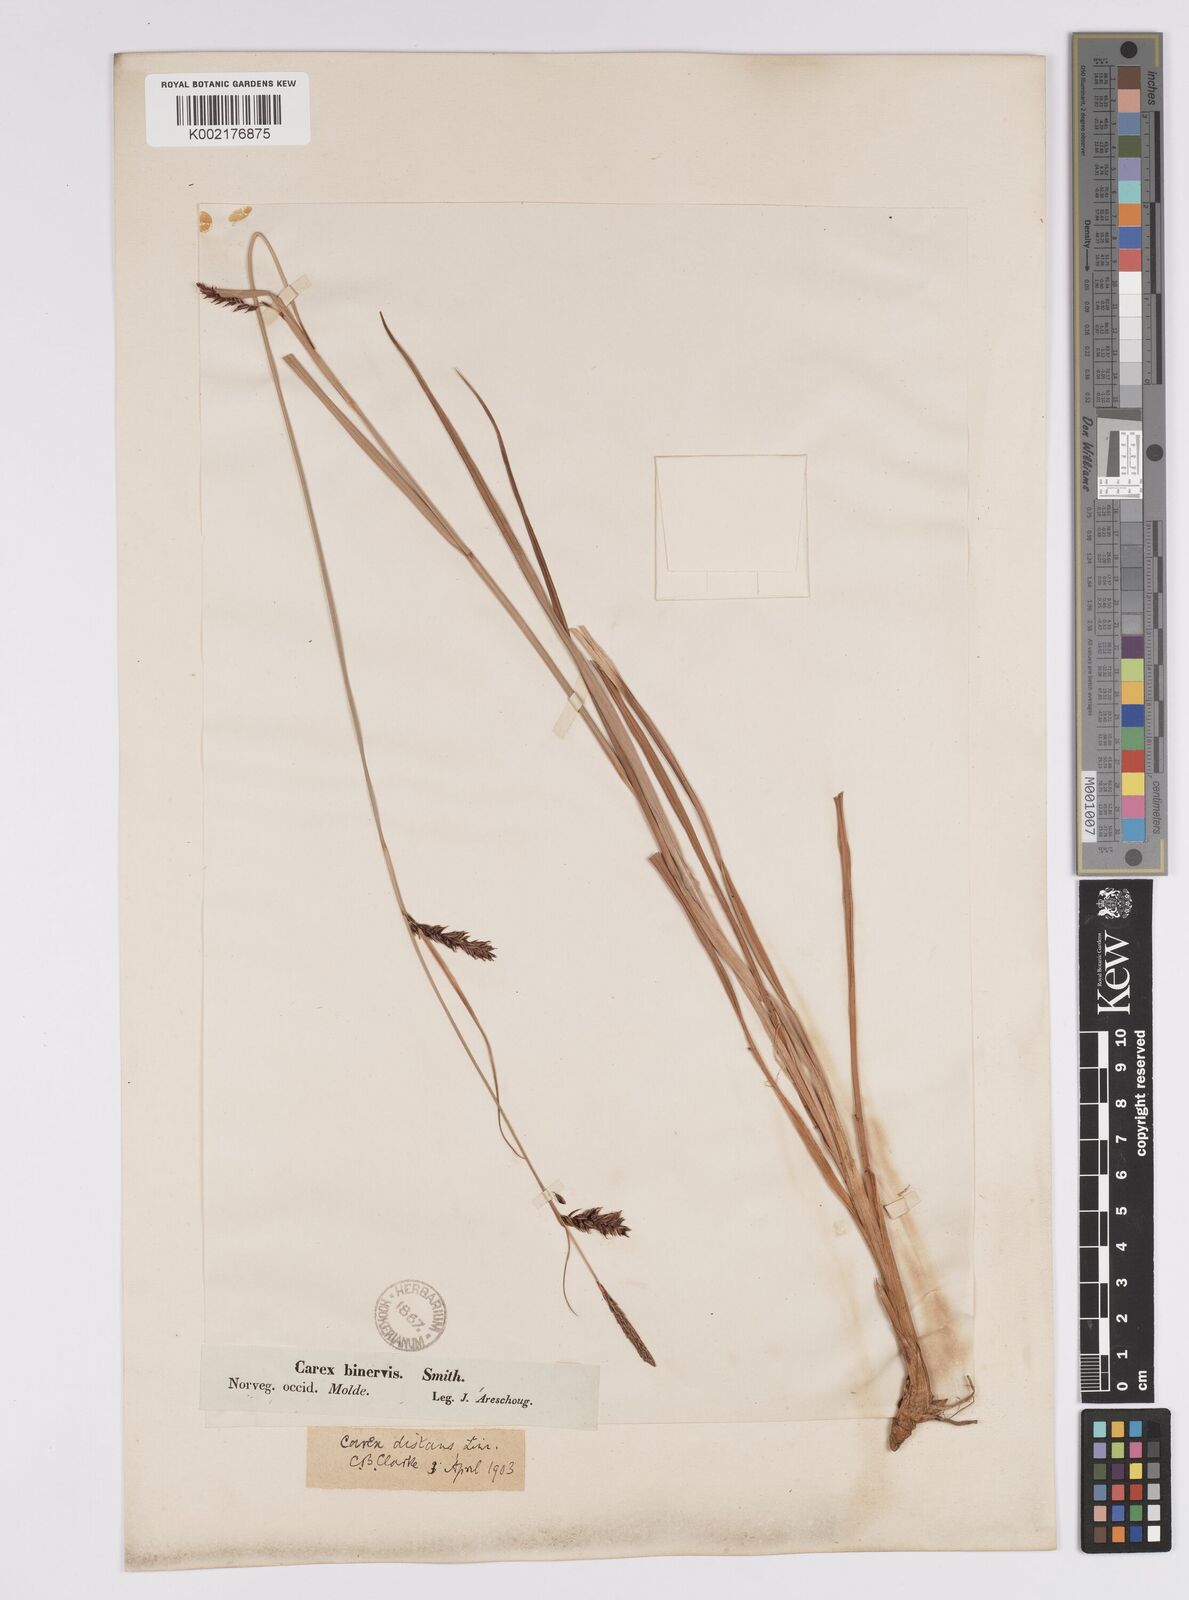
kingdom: Plantae
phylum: Tracheophyta
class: Liliopsida
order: Poales
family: Cyperaceae
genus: Carex
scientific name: Carex binervis
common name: Green-ribbed sedge
